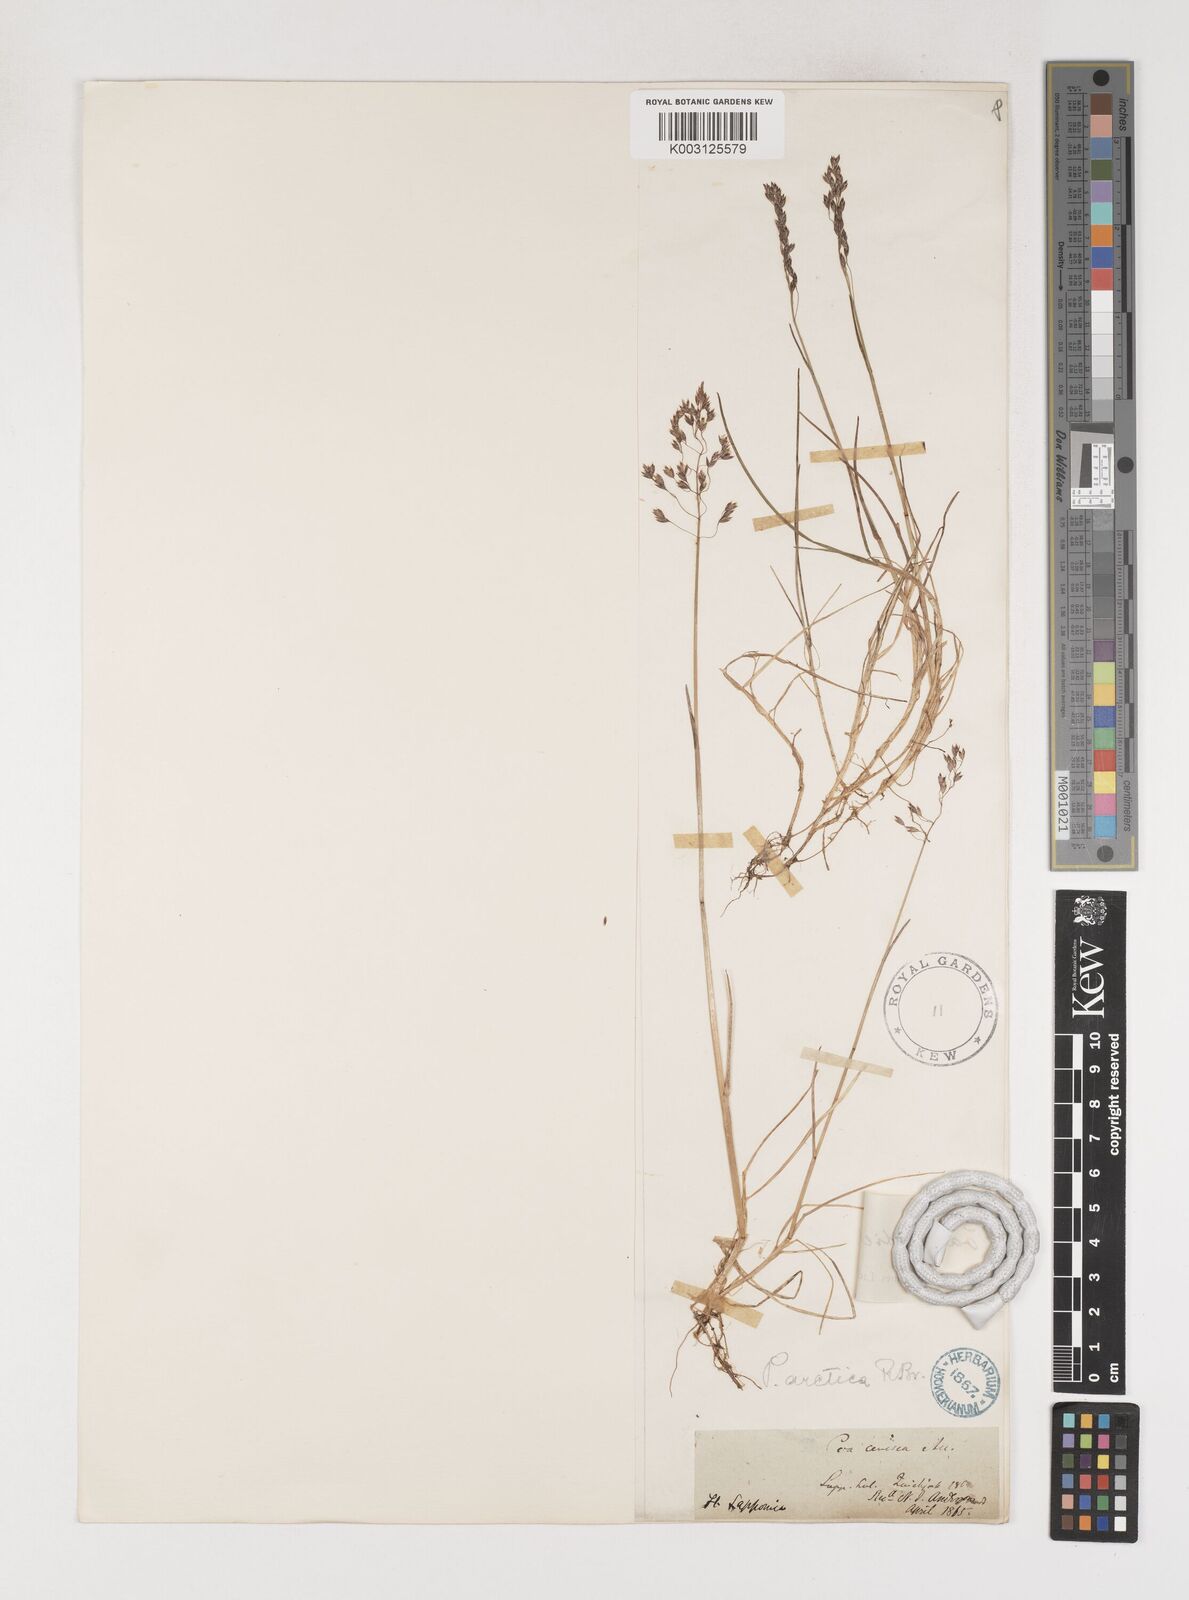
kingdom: Plantae
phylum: Tracheophyta
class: Liliopsida
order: Poales
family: Poaceae
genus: Poa
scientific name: Poa arctica
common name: Arctic bluegrass
